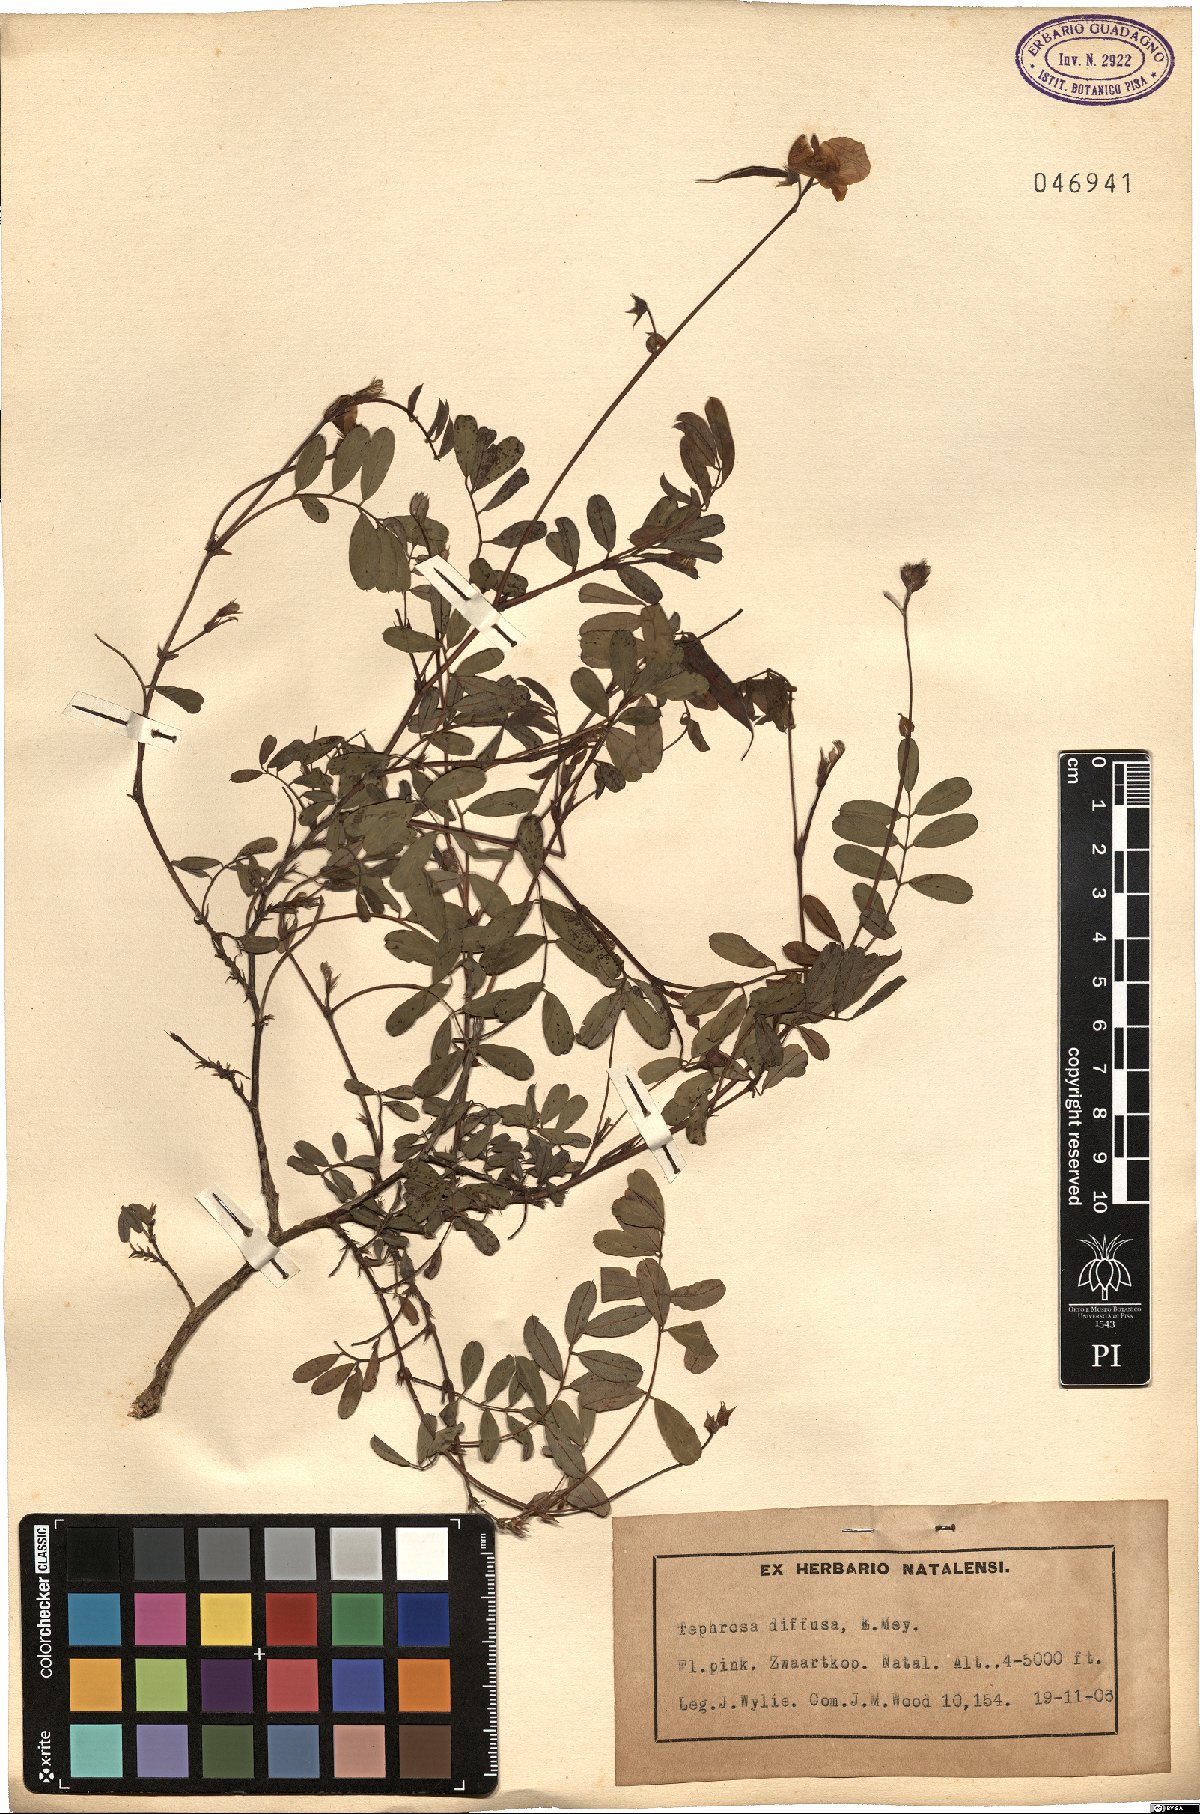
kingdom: Plantae
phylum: Tracheophyta
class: Magnoliopsida
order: Fabales
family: Fabaceae
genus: Tephrosia
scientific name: Tephrosia macropoda
